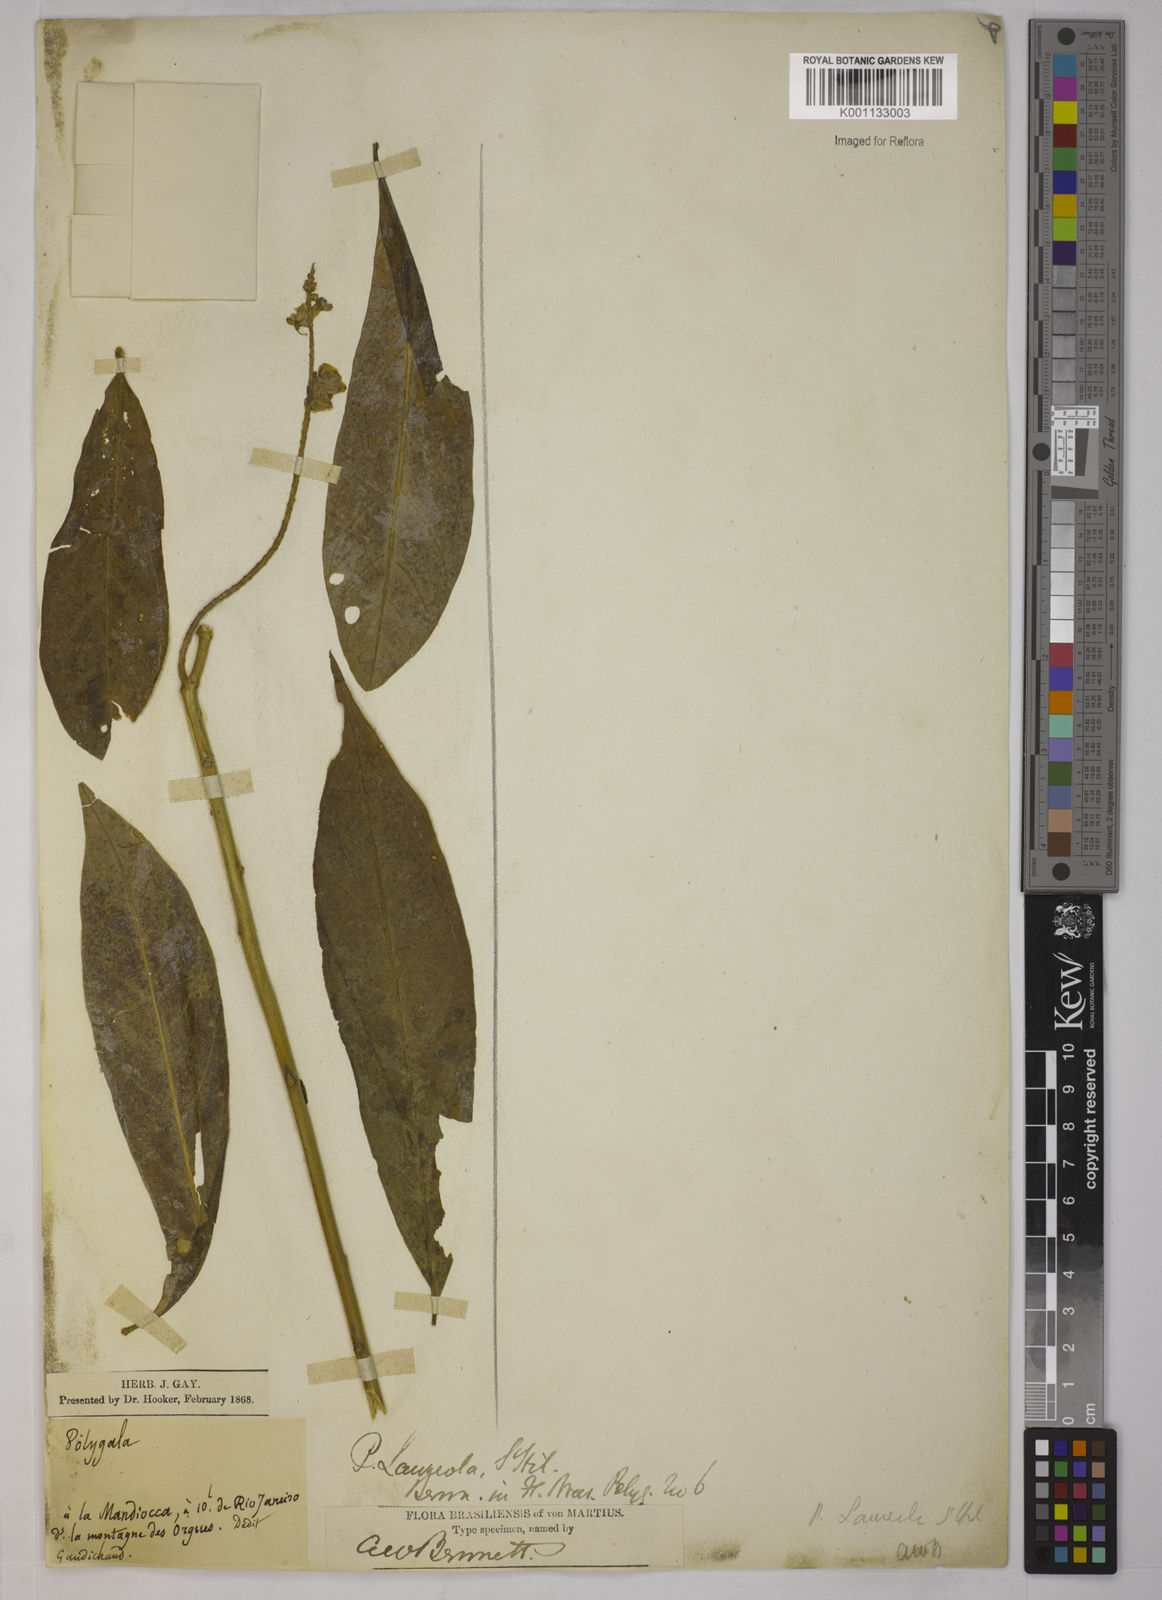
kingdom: Plantae
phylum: Tracheophyta
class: Magnoliopsida
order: Fabales
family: Polygalaceae
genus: Caamembeca
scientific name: Caamembeca salicifolia
